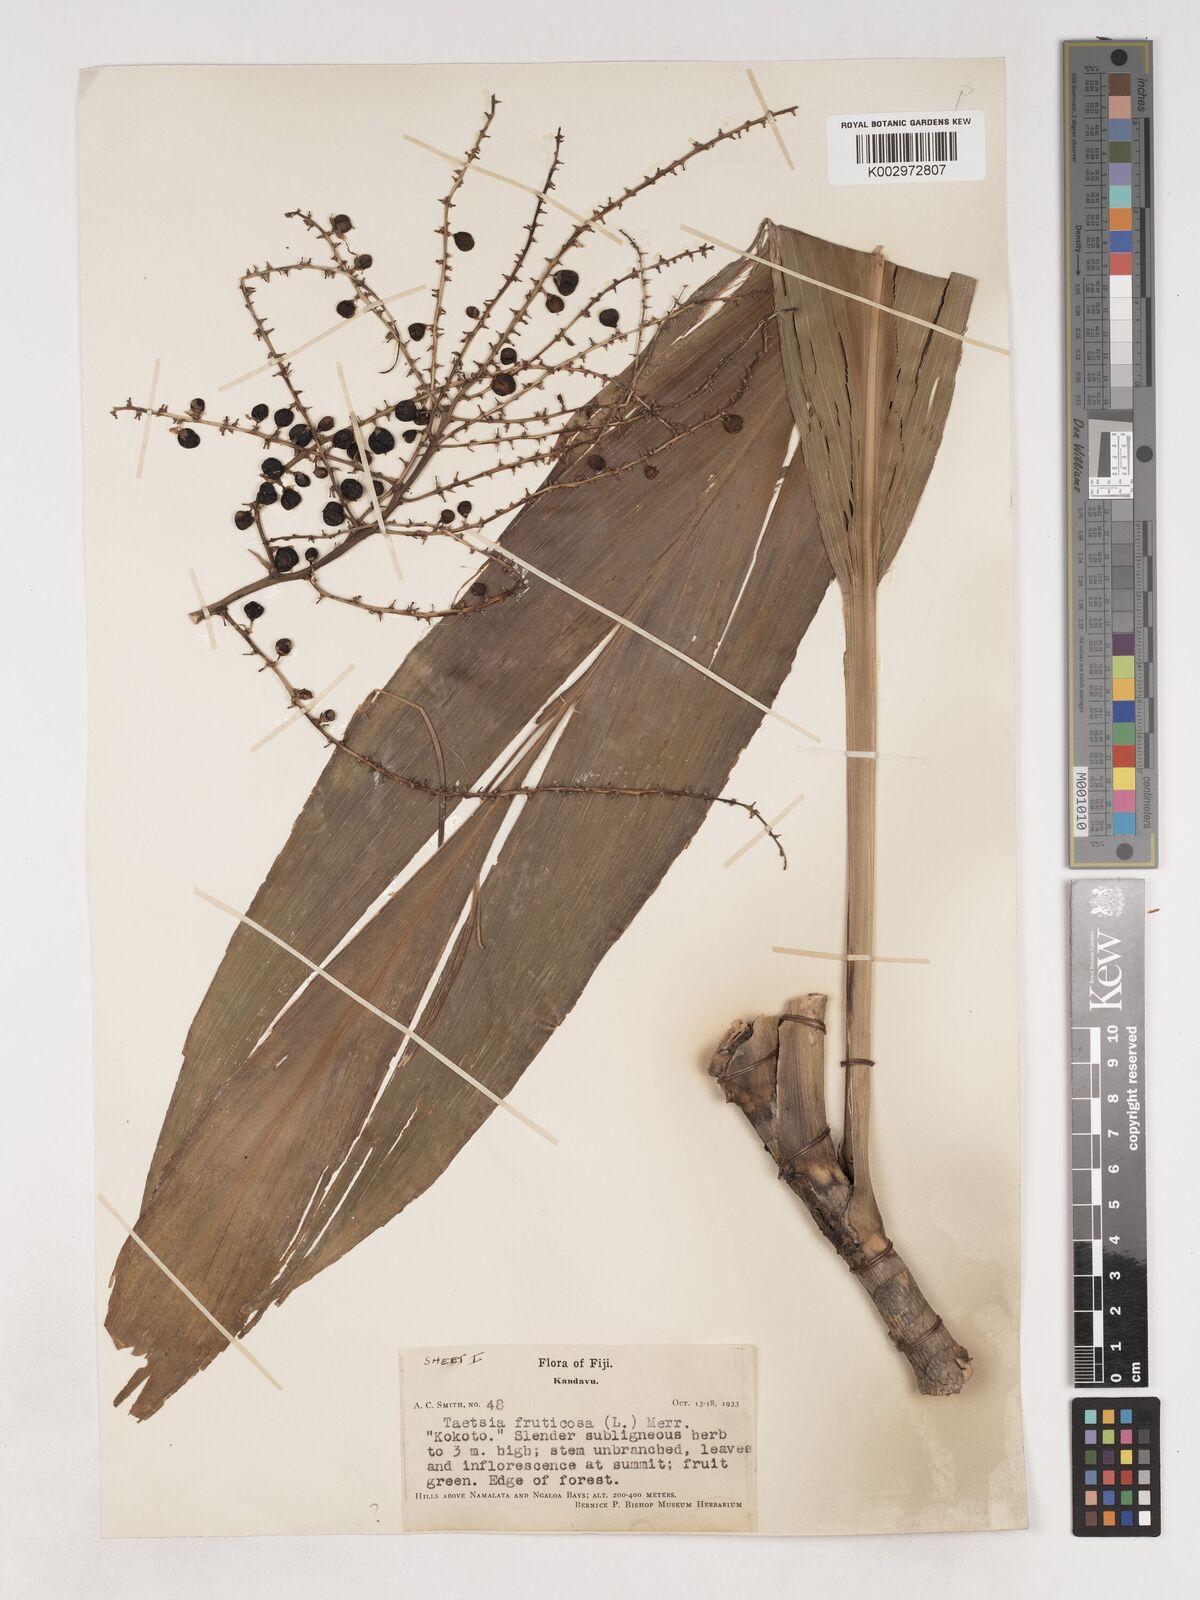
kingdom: Plantae
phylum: Tracheophyta
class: Liliopsida
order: Asparagales
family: Asparagaceae
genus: Cordyline
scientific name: Cordyline fruticosa
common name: Good-luck-plant
